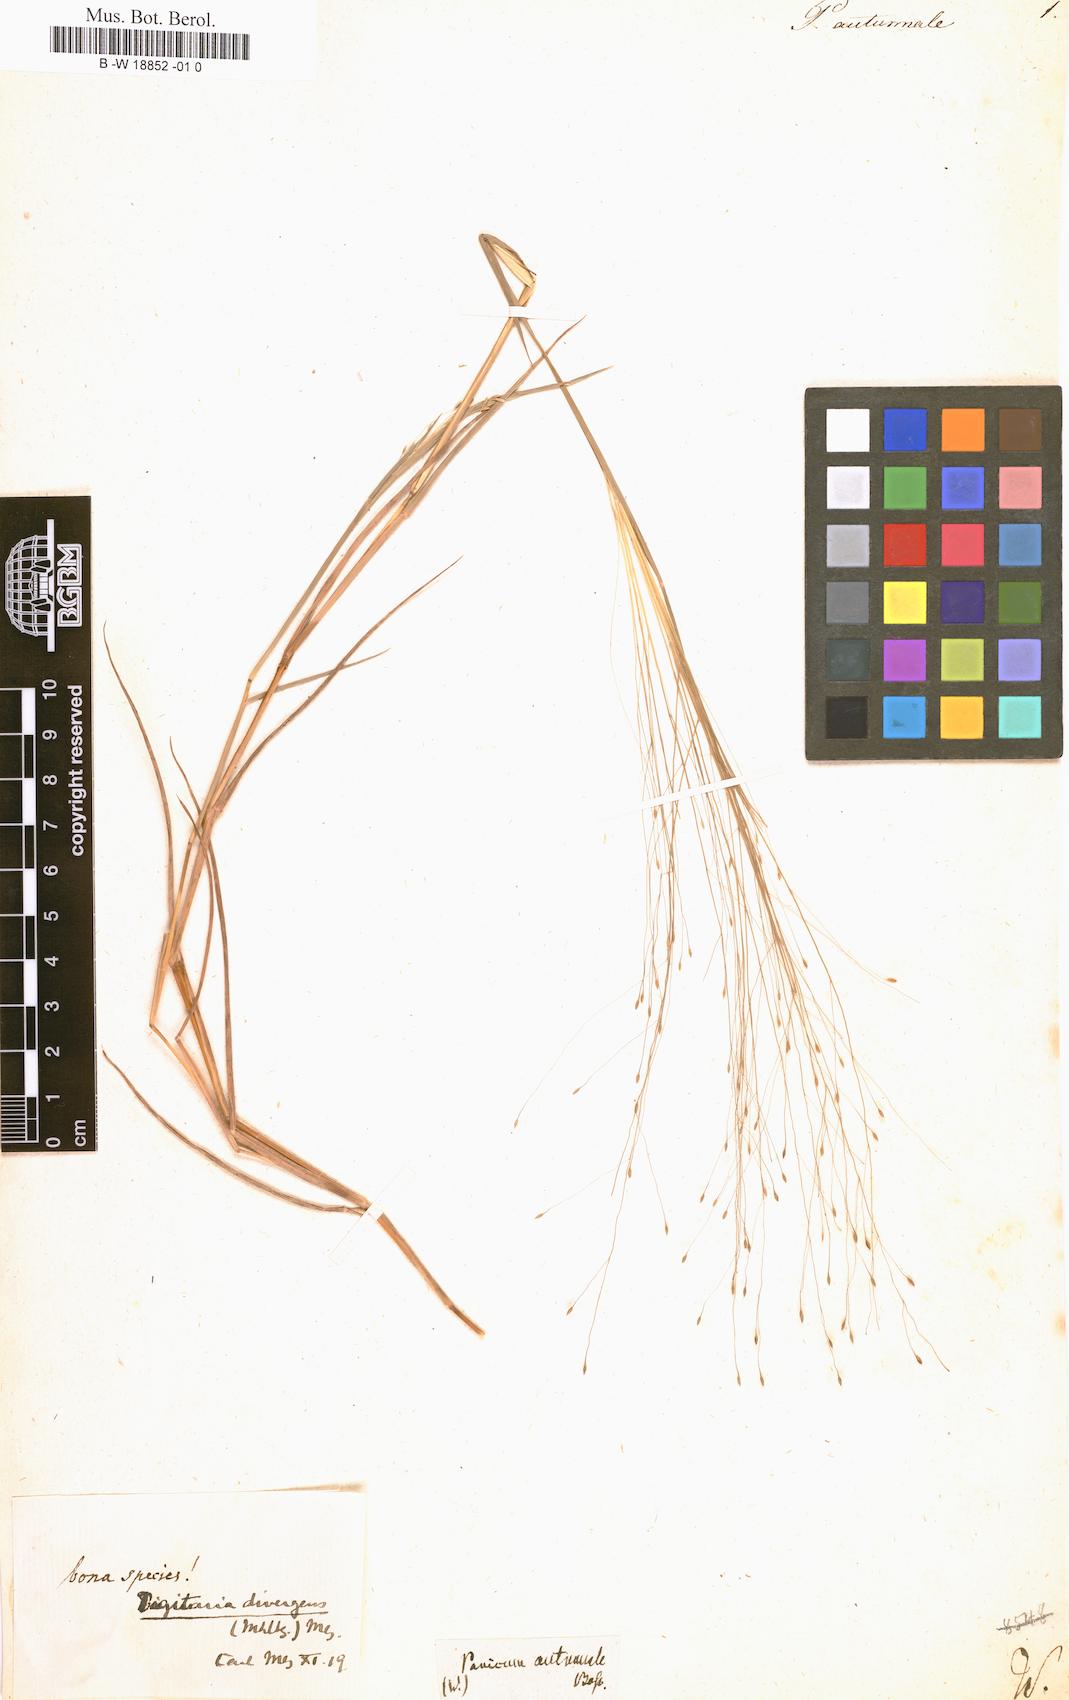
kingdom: Plantae
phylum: Tracheophyta
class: Liliopsida
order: Poales
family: Poaceae
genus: Digitaria
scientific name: Digitaria cognata
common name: Fall witchgrass
